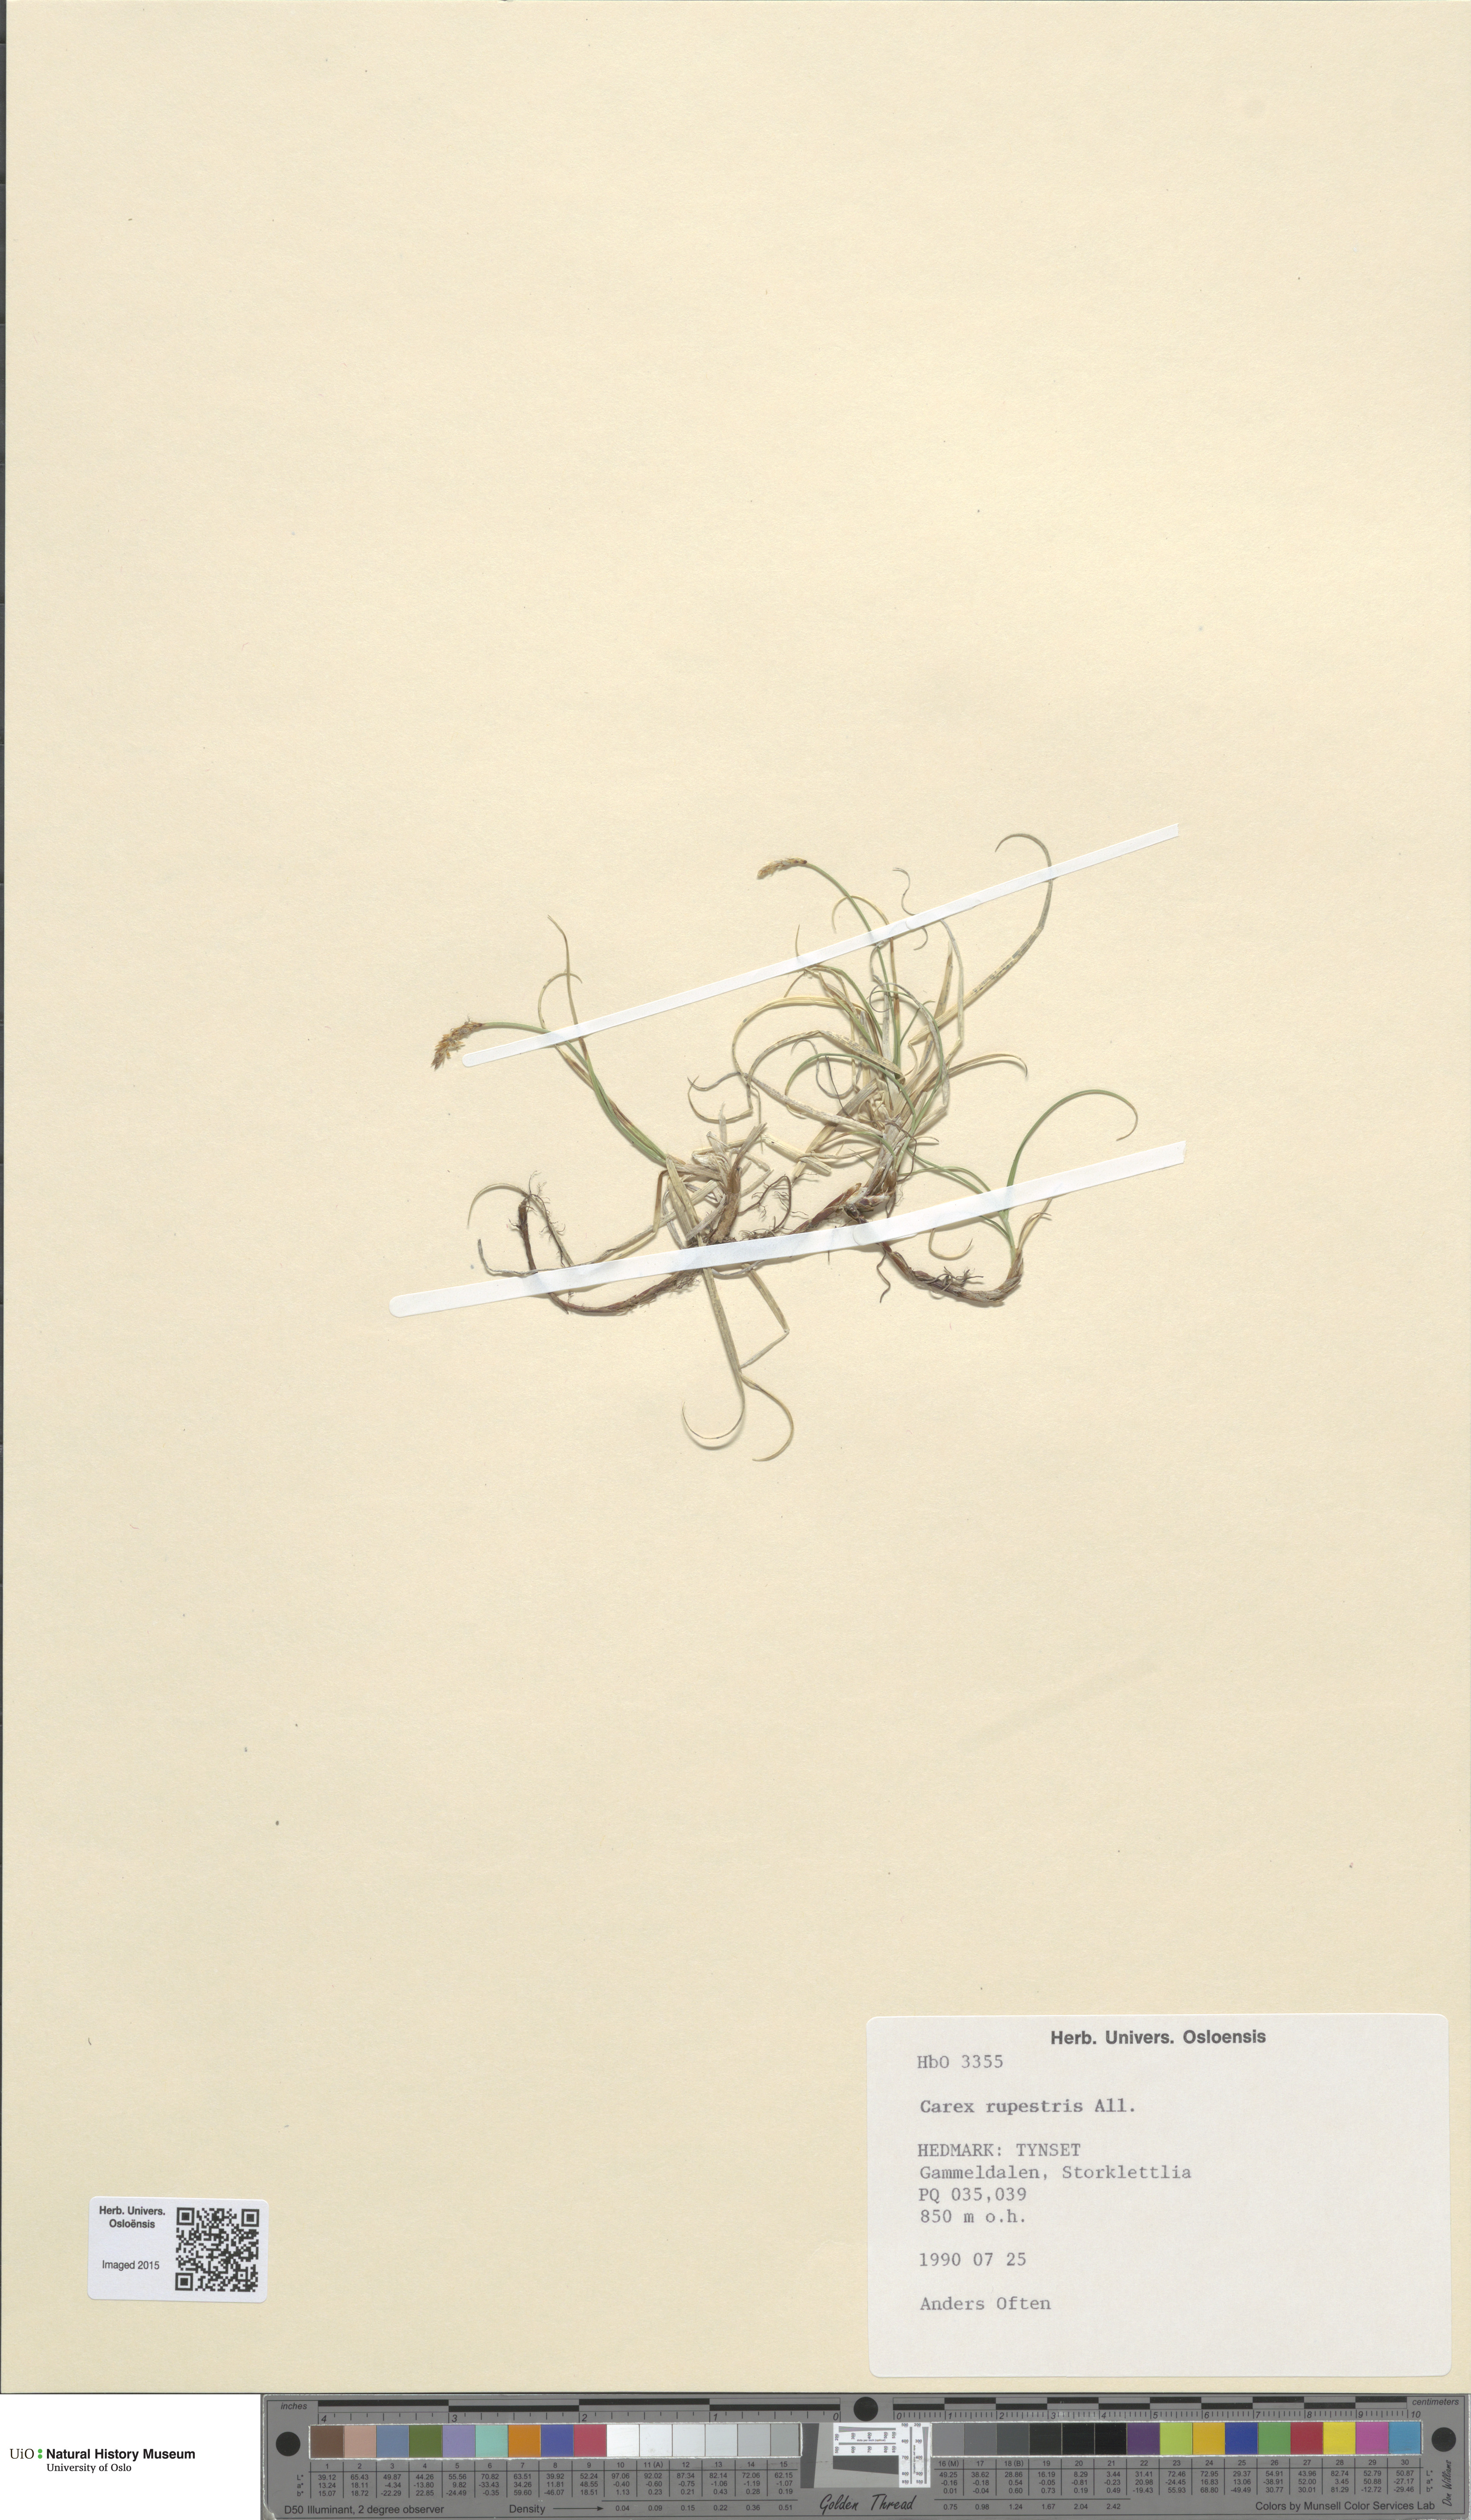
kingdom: Plantae
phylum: Tracheophyta
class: Liliopsida
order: Poales
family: Cyperaceae
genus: Carex
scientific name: Carex rupestris
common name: Rock sedge
